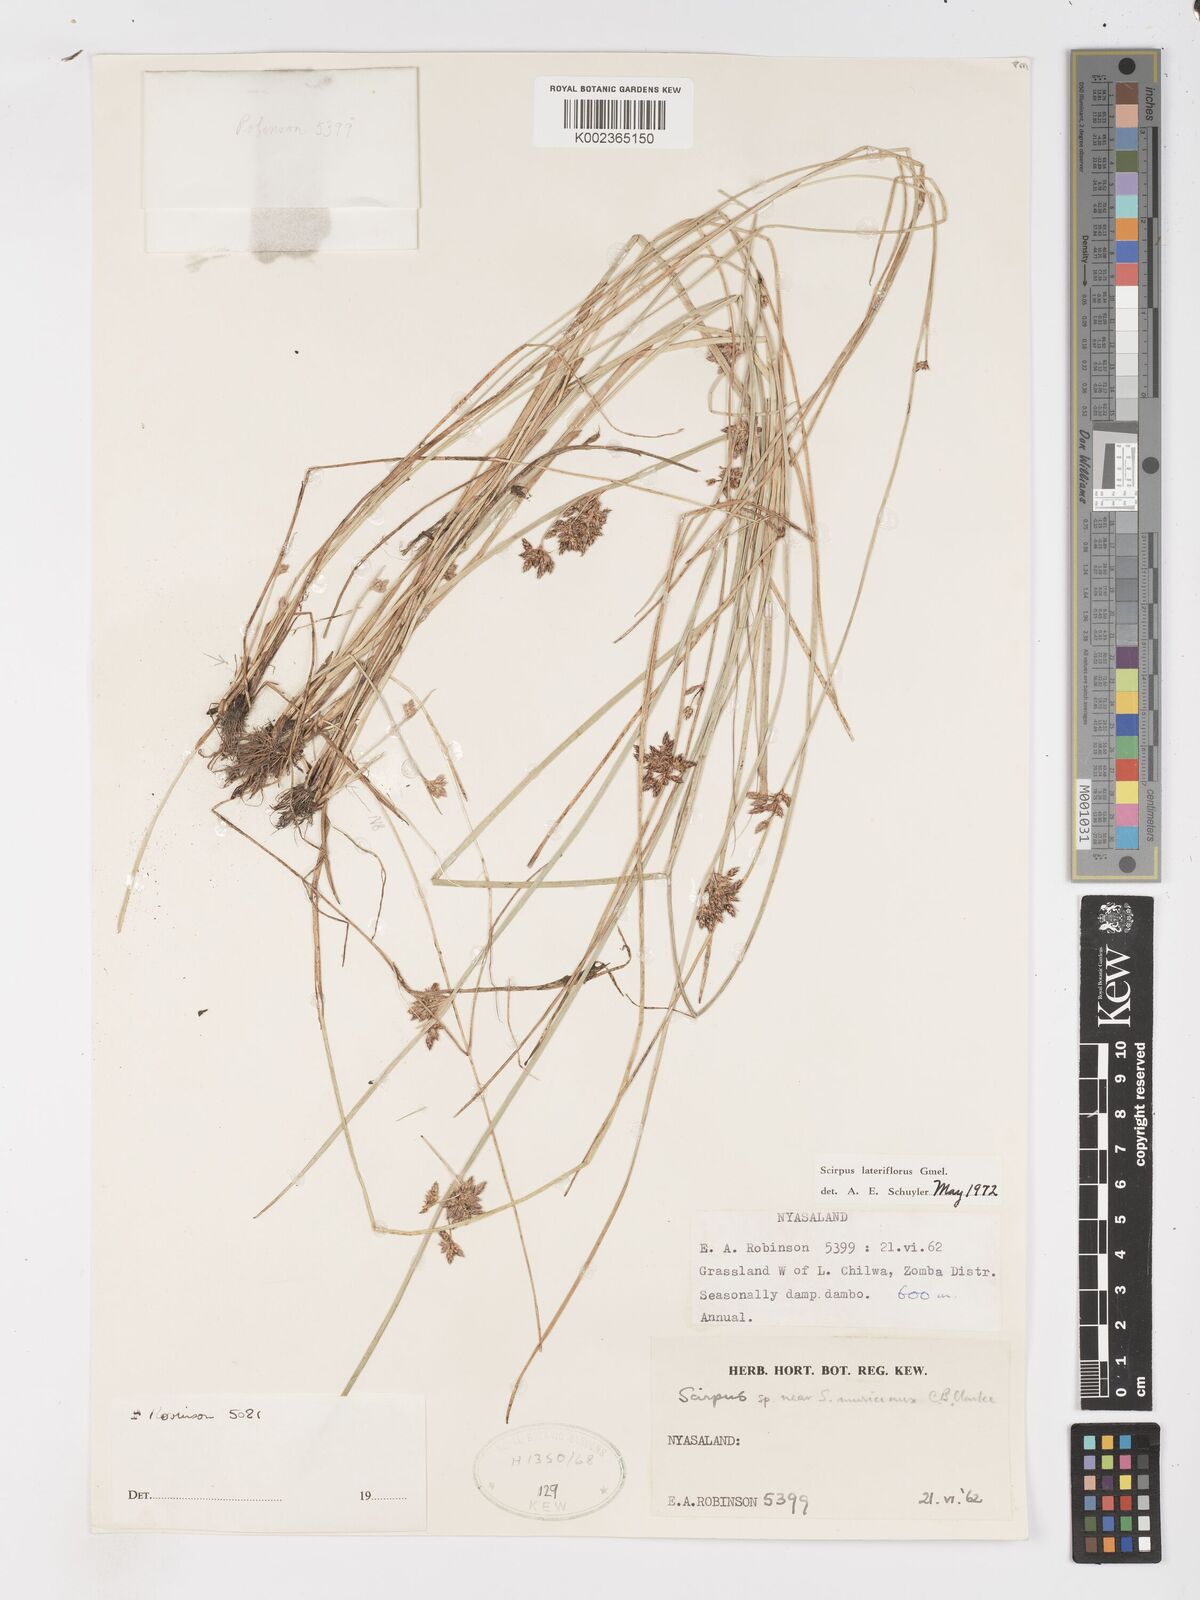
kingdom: Plantae
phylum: Tracheophyta
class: Liliopsida
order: Poales
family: Cyperaceae
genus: Schoenoplectus
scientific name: Schoenoplectus
